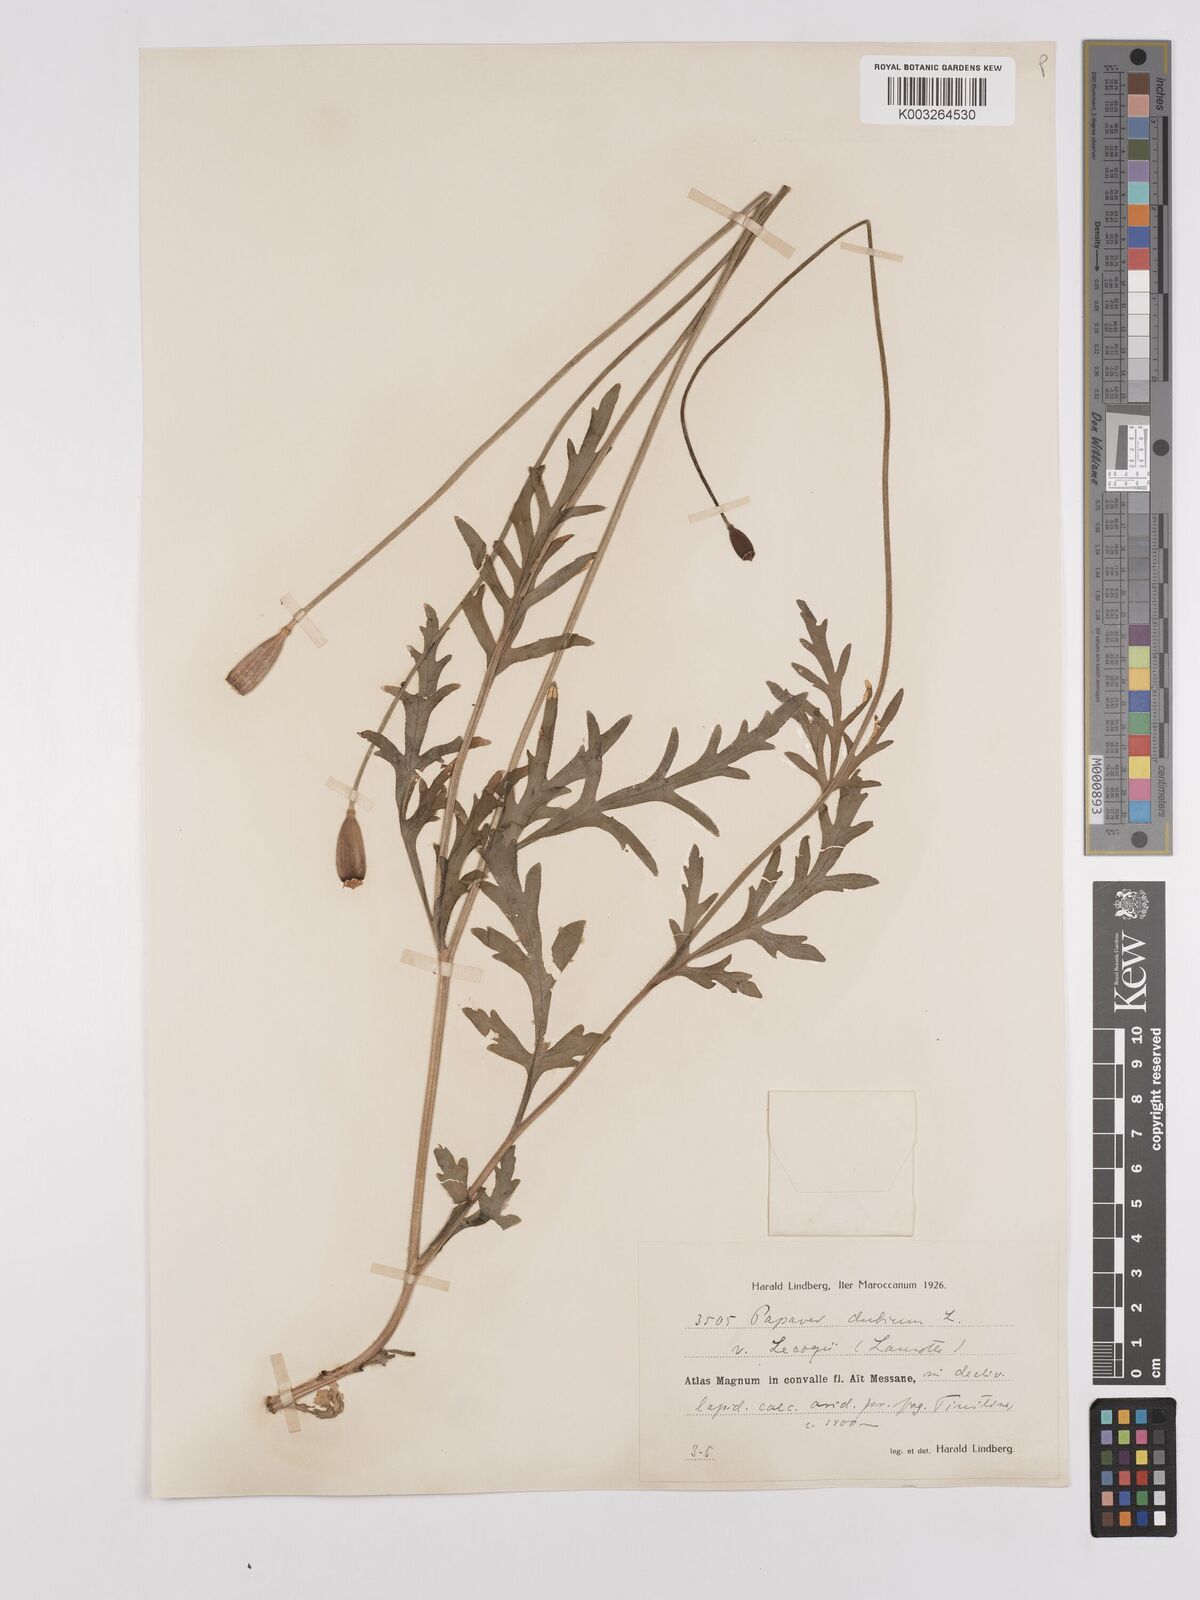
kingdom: Plantae
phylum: Tracheophyta
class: Magnoliopsida
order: Ranunculales
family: Papaveraceae
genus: Papaver
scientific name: Papaver dubium
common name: Long-headed poppy
